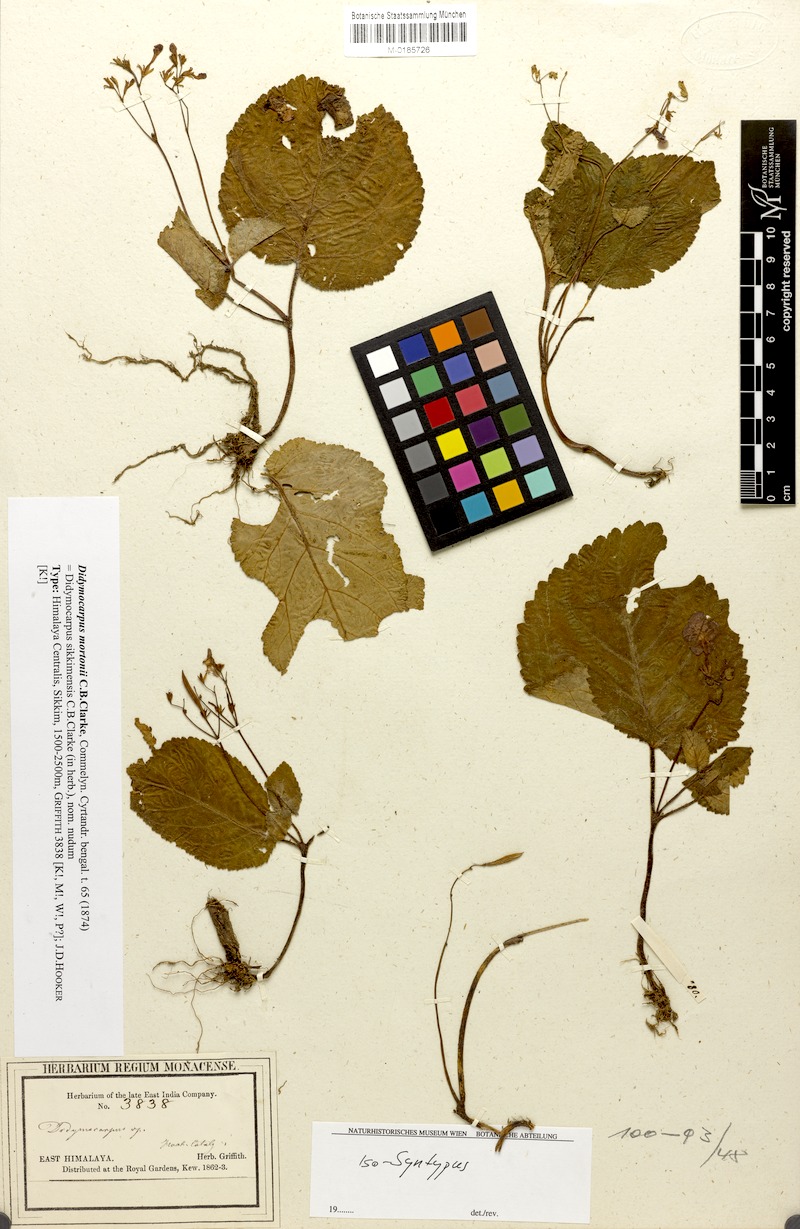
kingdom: Plantae
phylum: Tracheophyta
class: Magnoliopsida
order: Lamiales
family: Gesneriaceae
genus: Didymocarpus
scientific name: Didymocarpus mortonii
